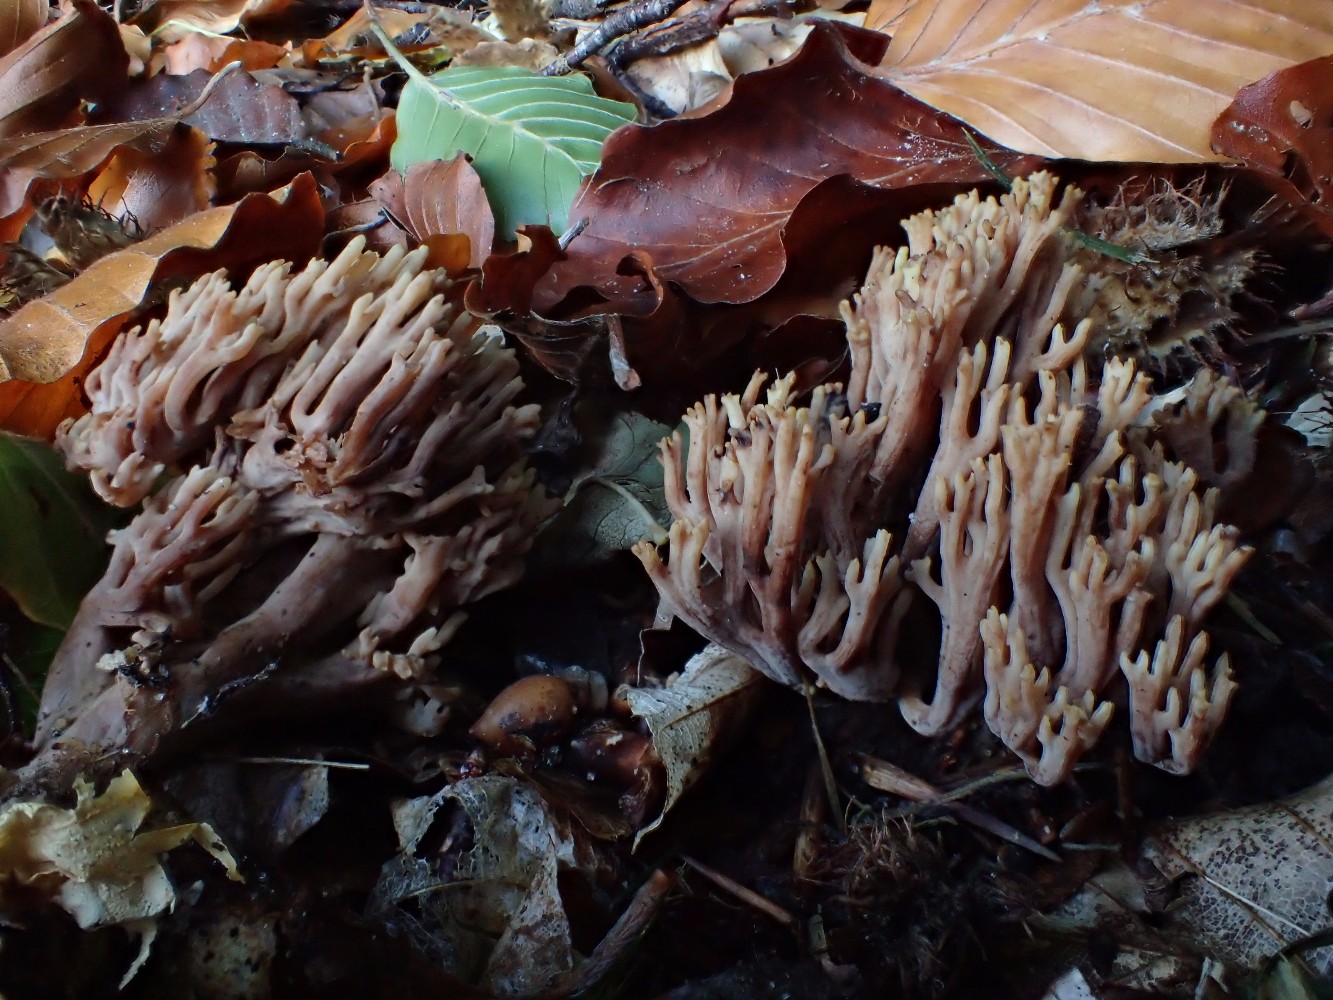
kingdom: Fungi
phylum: Basidiomycota
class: Agaricomycetes
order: Gomphales
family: Gomphaceae
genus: Ramaria
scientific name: Ramaria
